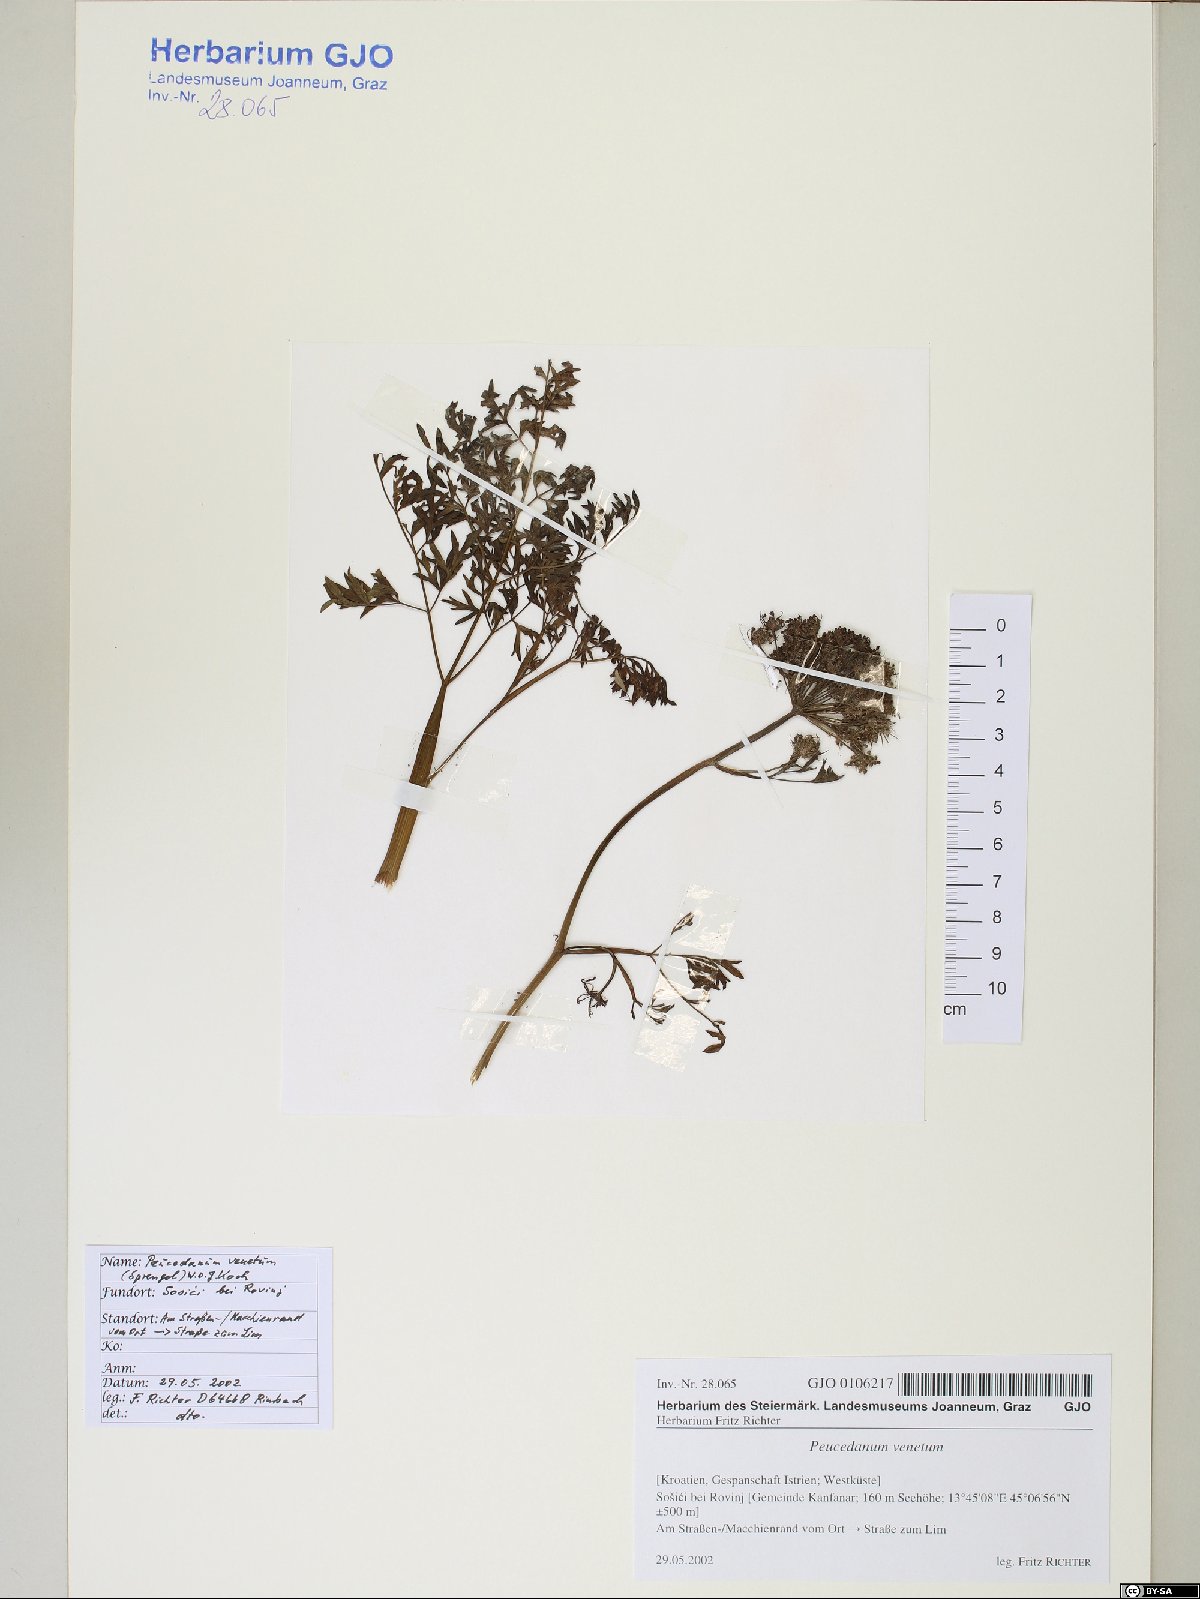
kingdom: Plantae
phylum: Tracheophyta
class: Magnoliopsida
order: Apiales
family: Apiaceae
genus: Xanthoselinum
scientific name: Xanthoselinum alsaticum
